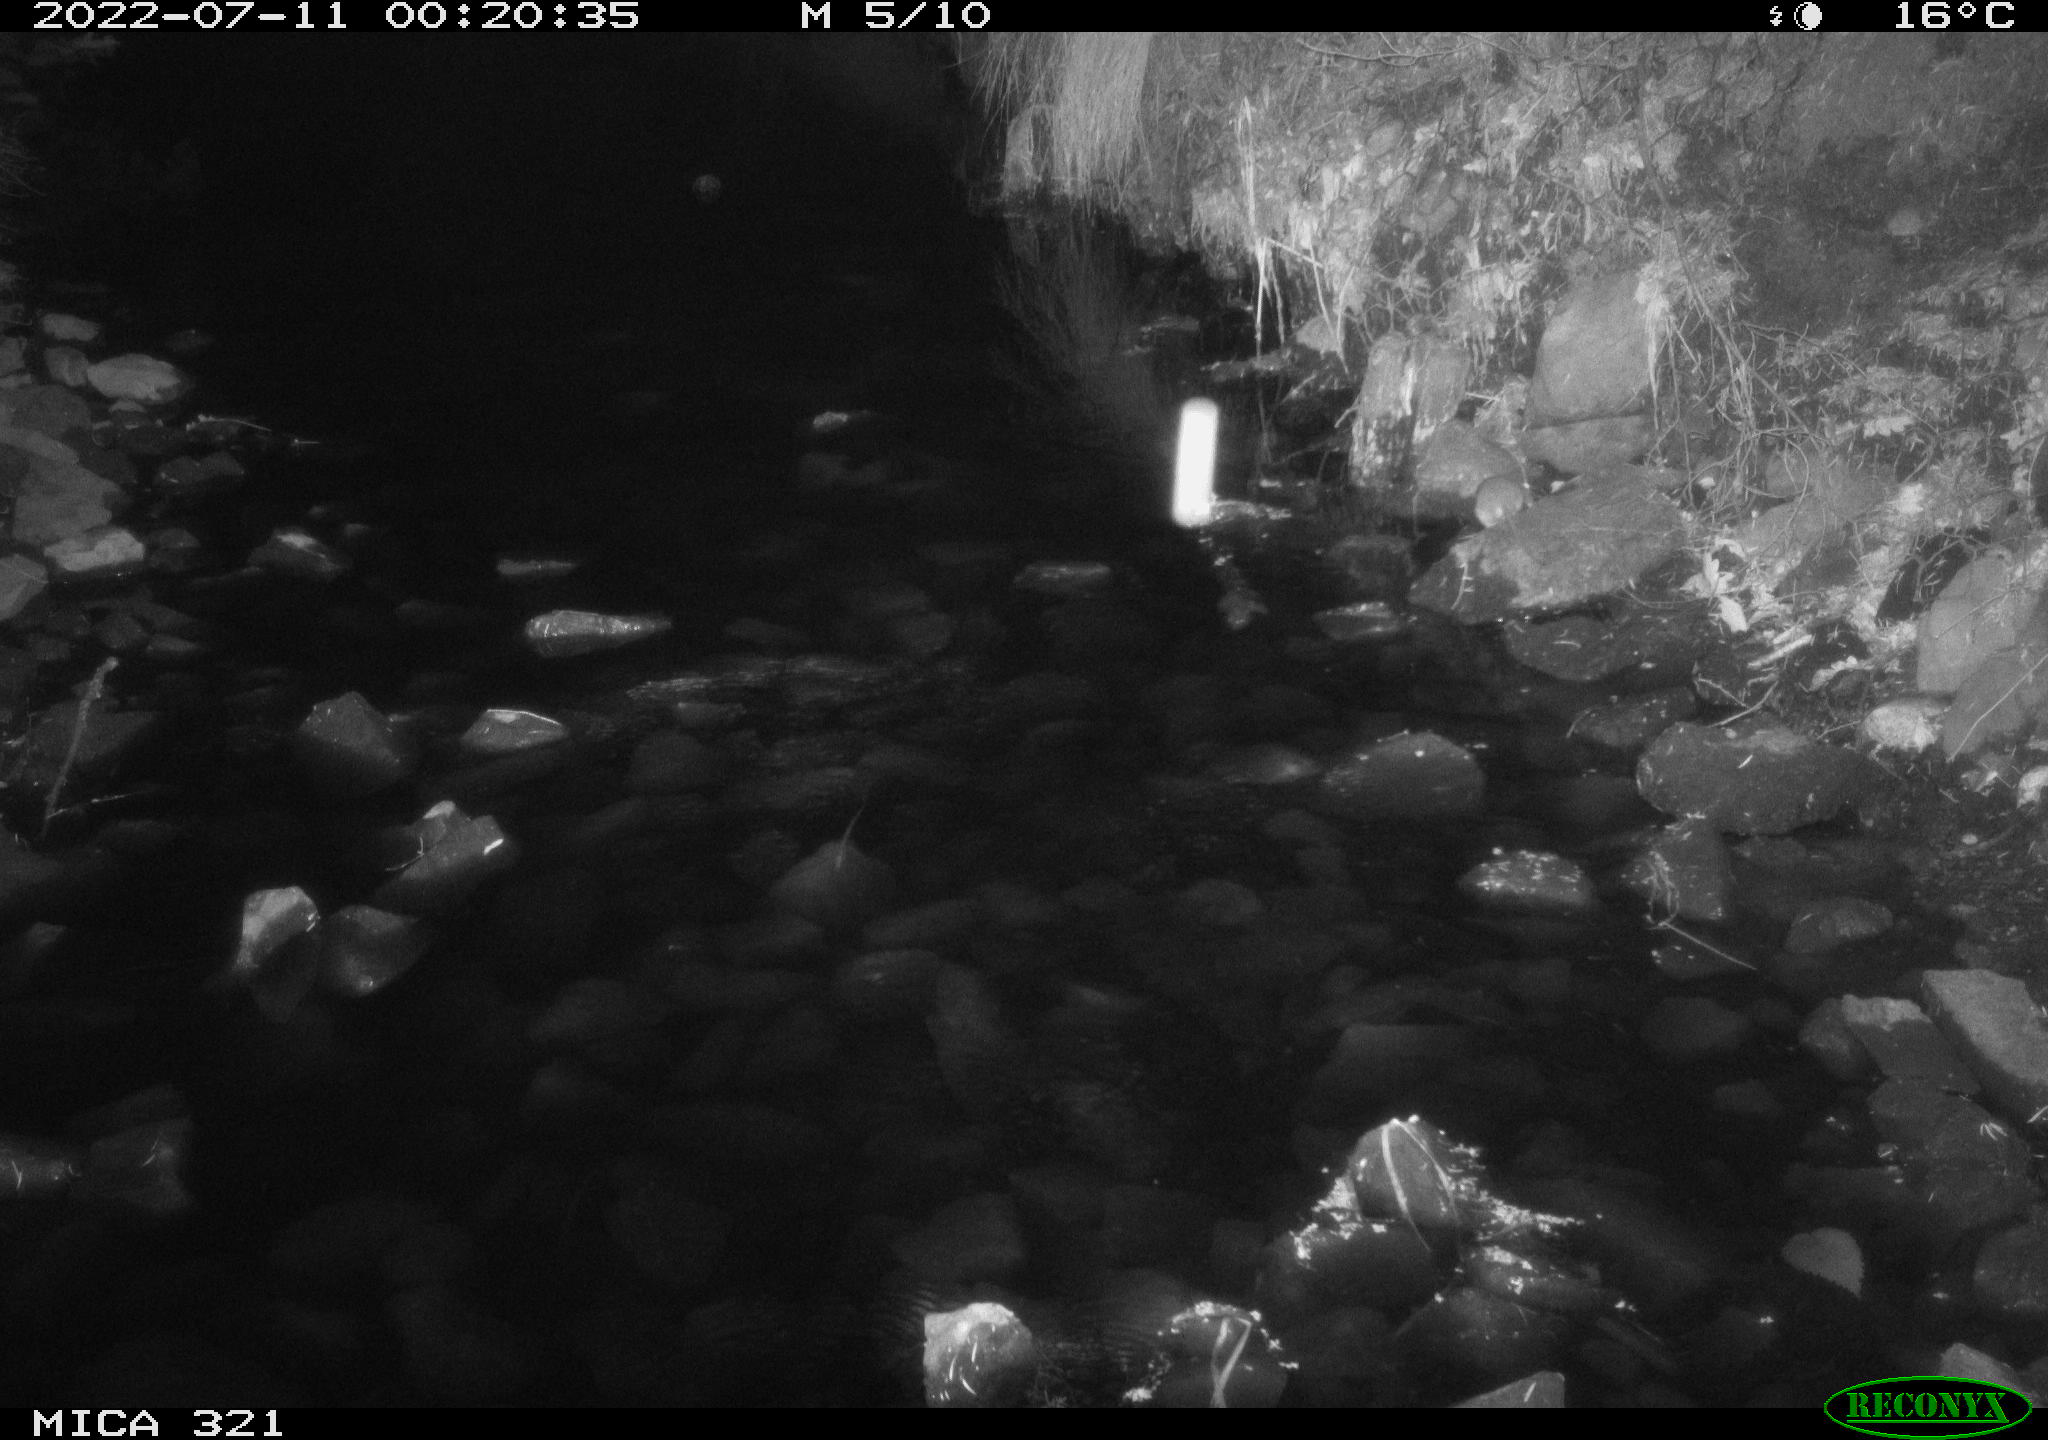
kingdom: Animalia
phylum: Chordata
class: Mammalia
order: Rodentia
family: Muridae
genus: Rattus
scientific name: Rattus norvegicus
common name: Brown rat
